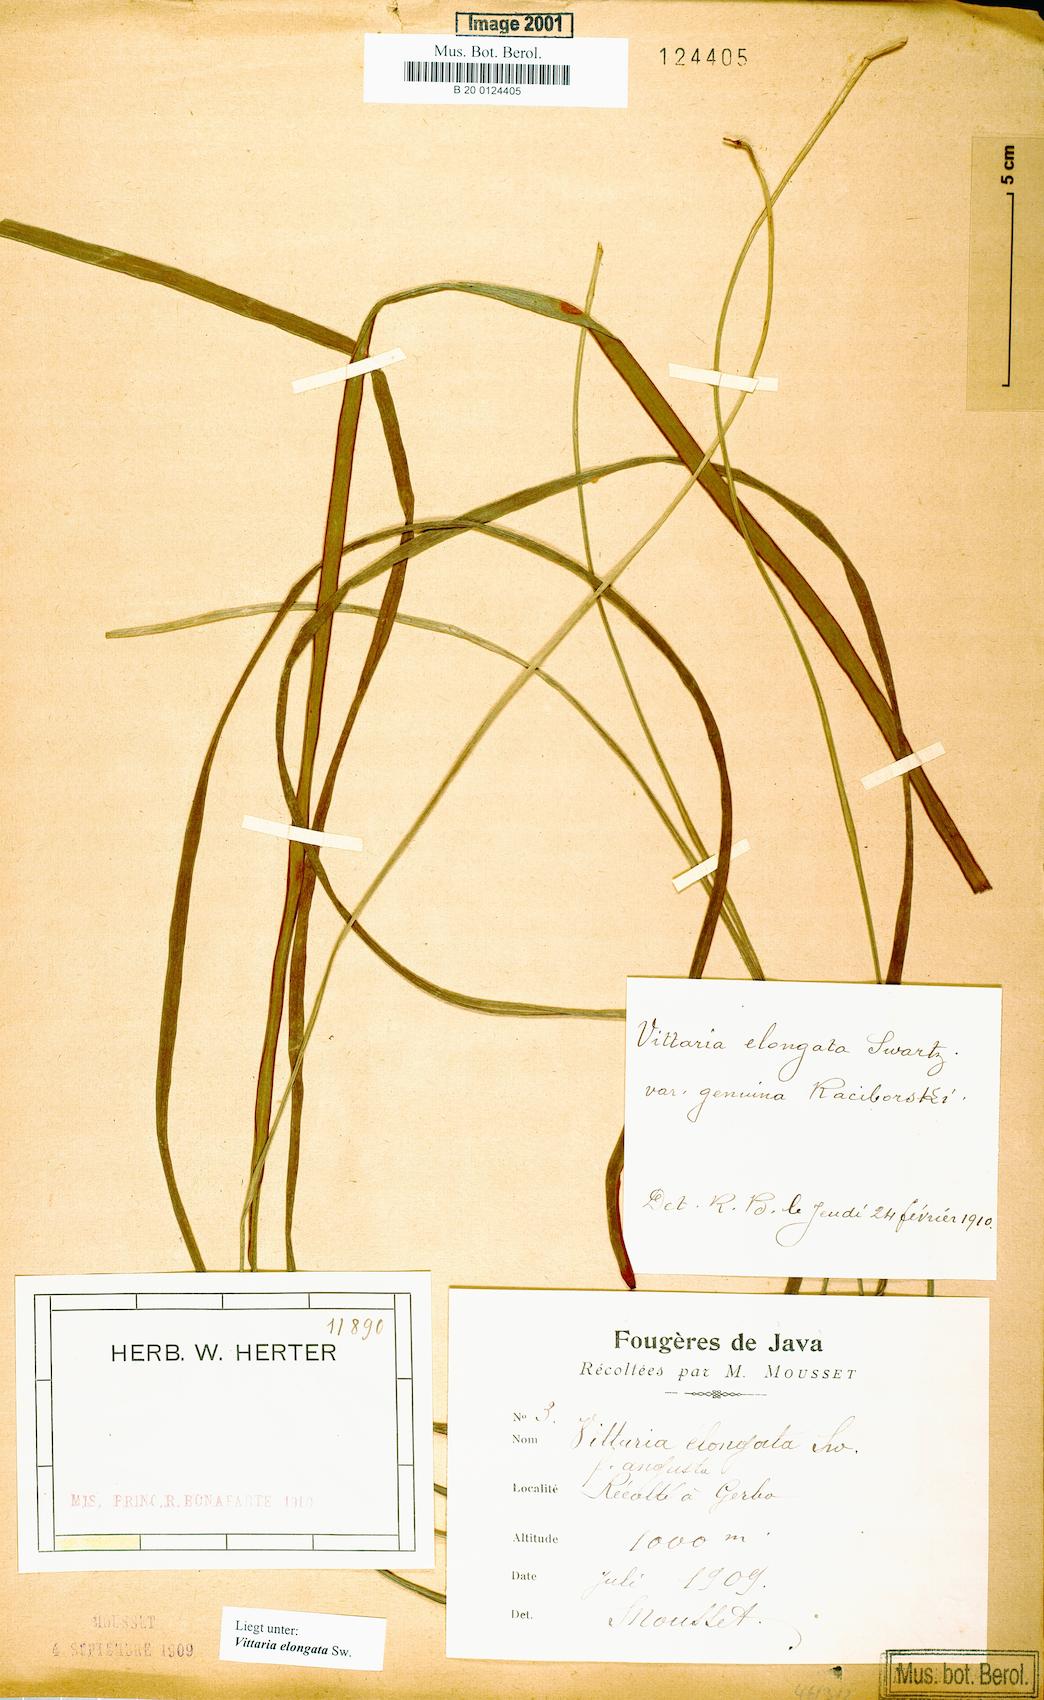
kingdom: Plantae
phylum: Tracheophyta
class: Polypodiopsida
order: Polypodiales
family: Pteridaceae
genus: Haplopteris
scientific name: Haplopteris elongata
